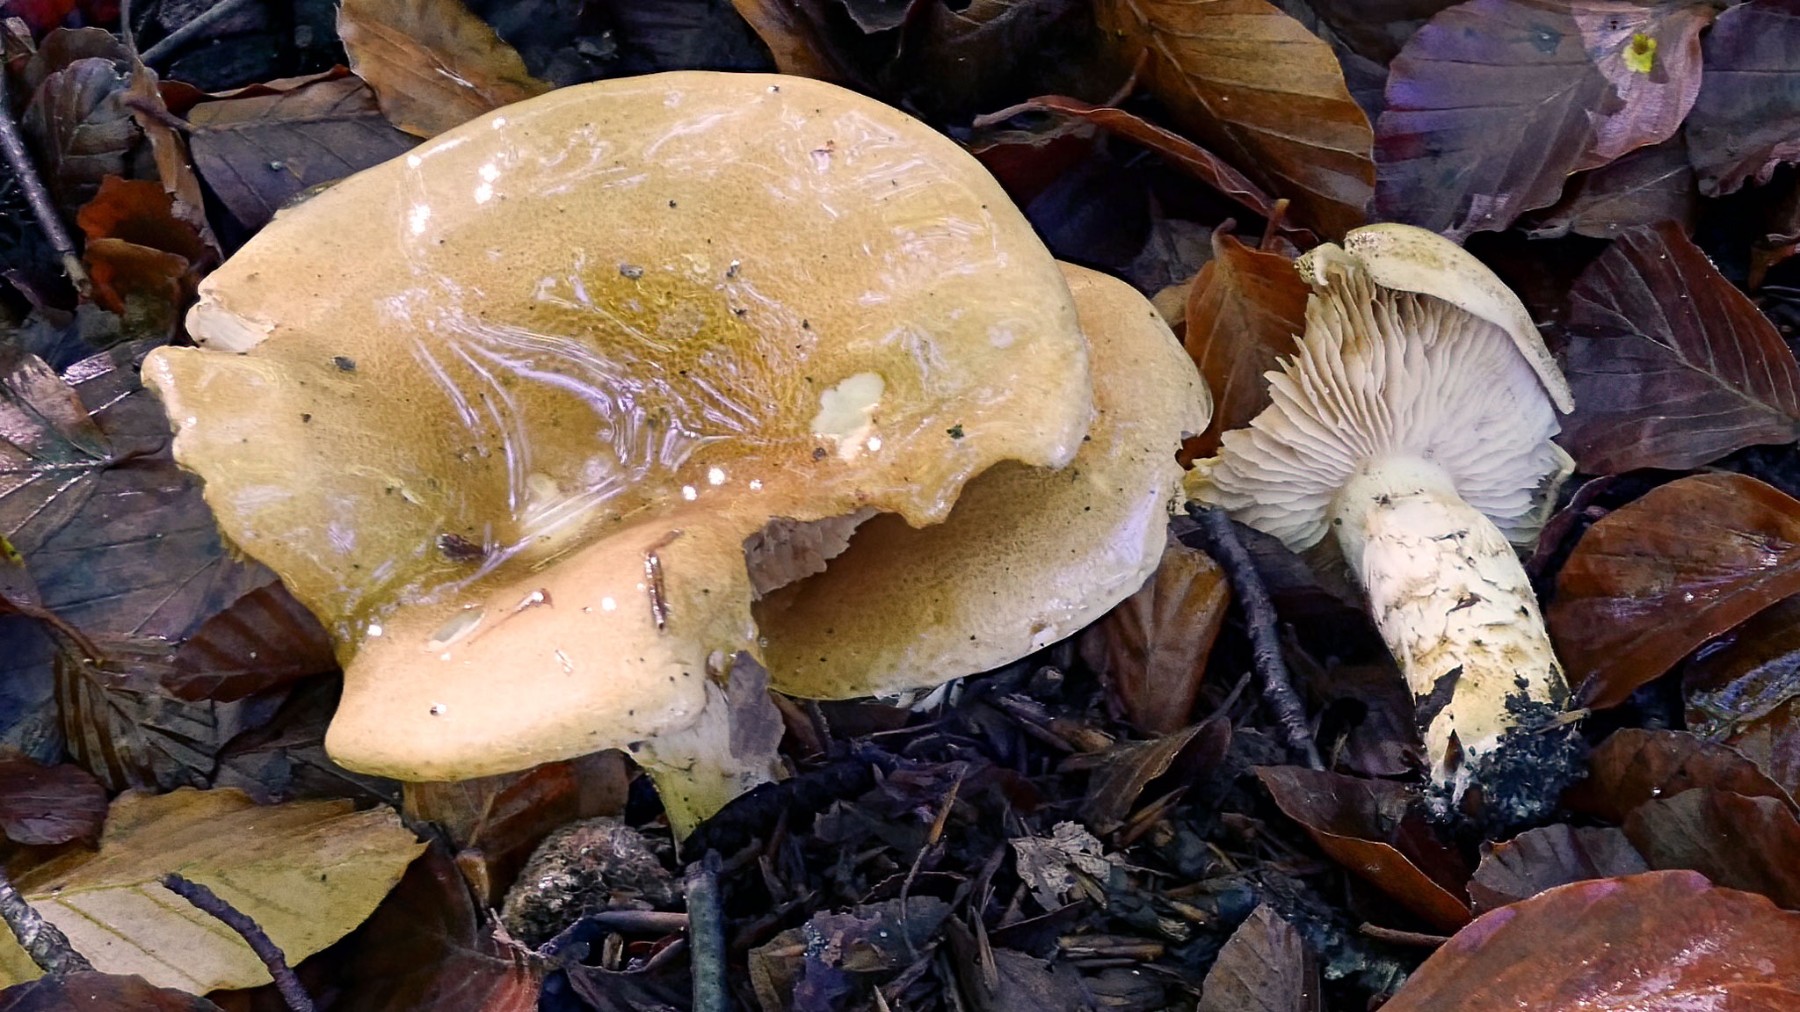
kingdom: Fungi
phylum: Basidiomycota
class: Agaricomycetes
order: Agaricales
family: Cortinariaceae
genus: Phlegmacium
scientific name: Phlegmacium cliduchus
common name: majs-slørhat
